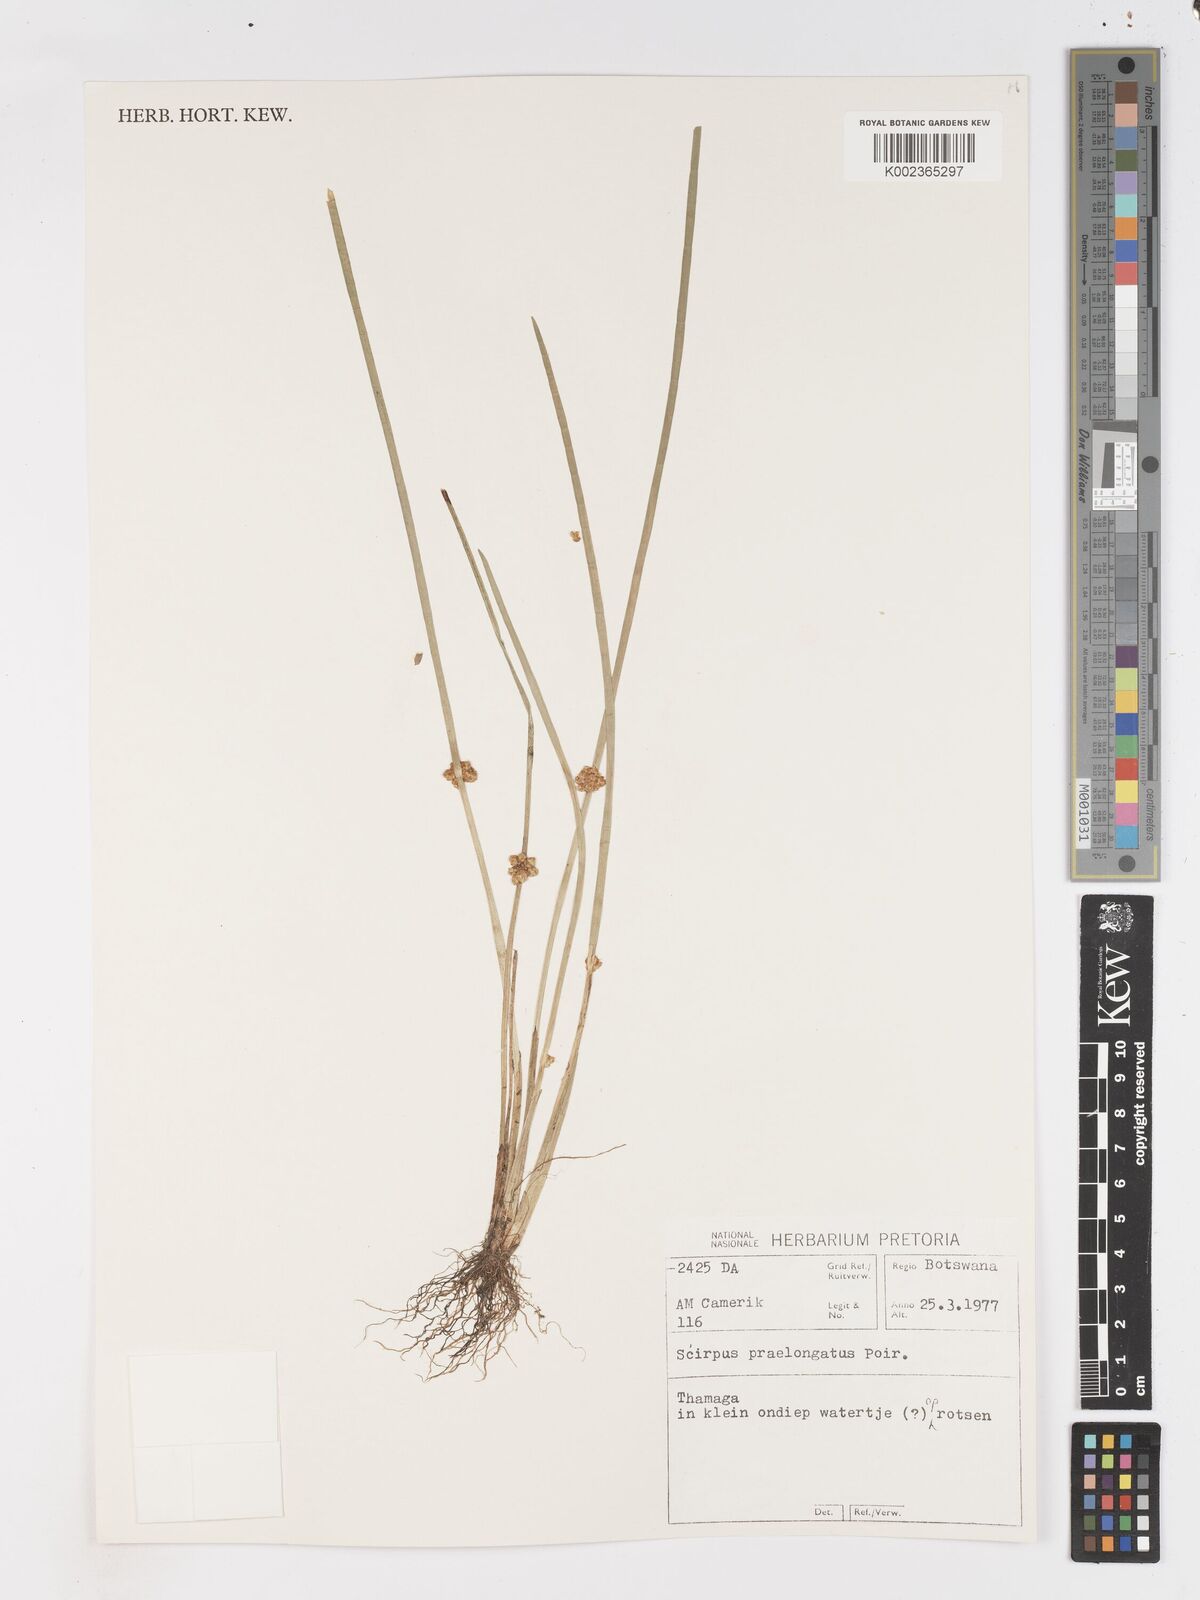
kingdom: Plantae
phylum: Tracheophyta
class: Liliopsida
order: Poales
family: Cyperaceae
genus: Schoenoplectiella
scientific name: Schoenoplectiella senegalensis
